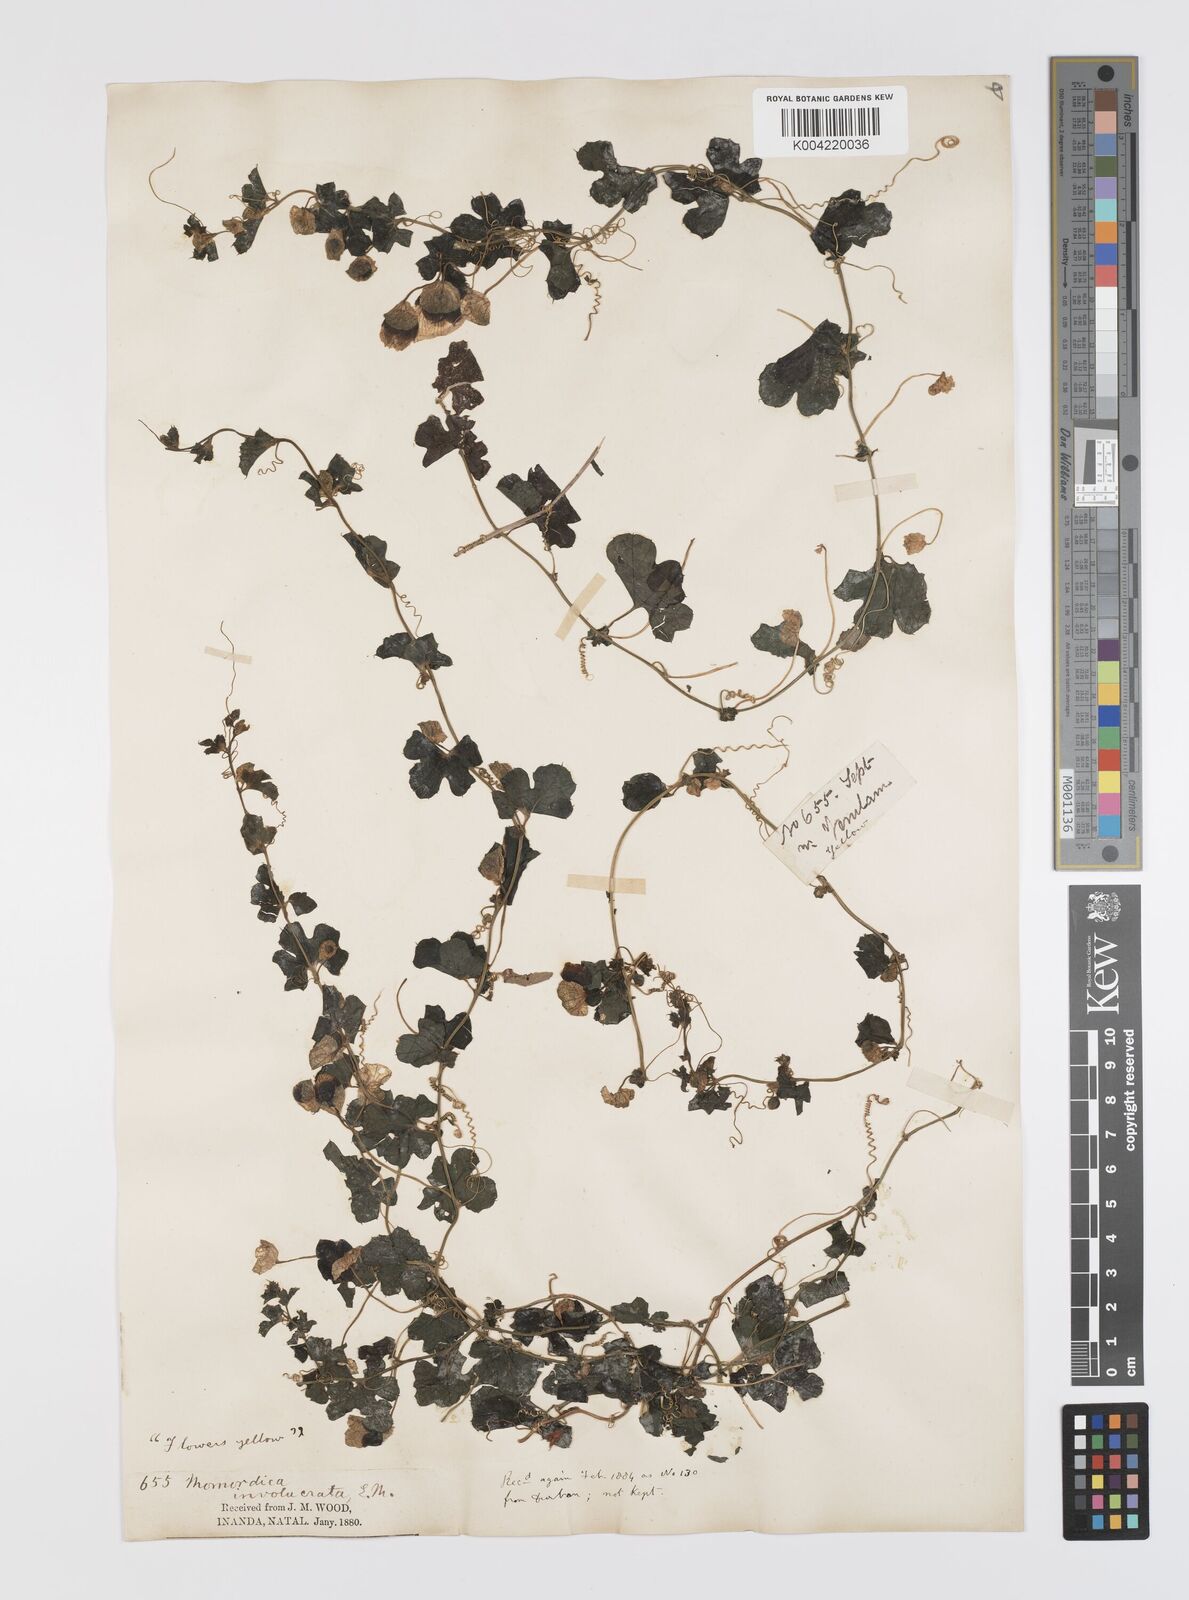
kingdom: Plantae
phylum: Tracheophyta
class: Magnoliopsida
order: Cucurbitales
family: Cucurbitaceae
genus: Momordica
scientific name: Momordica balsamina
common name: Southern balsampear
